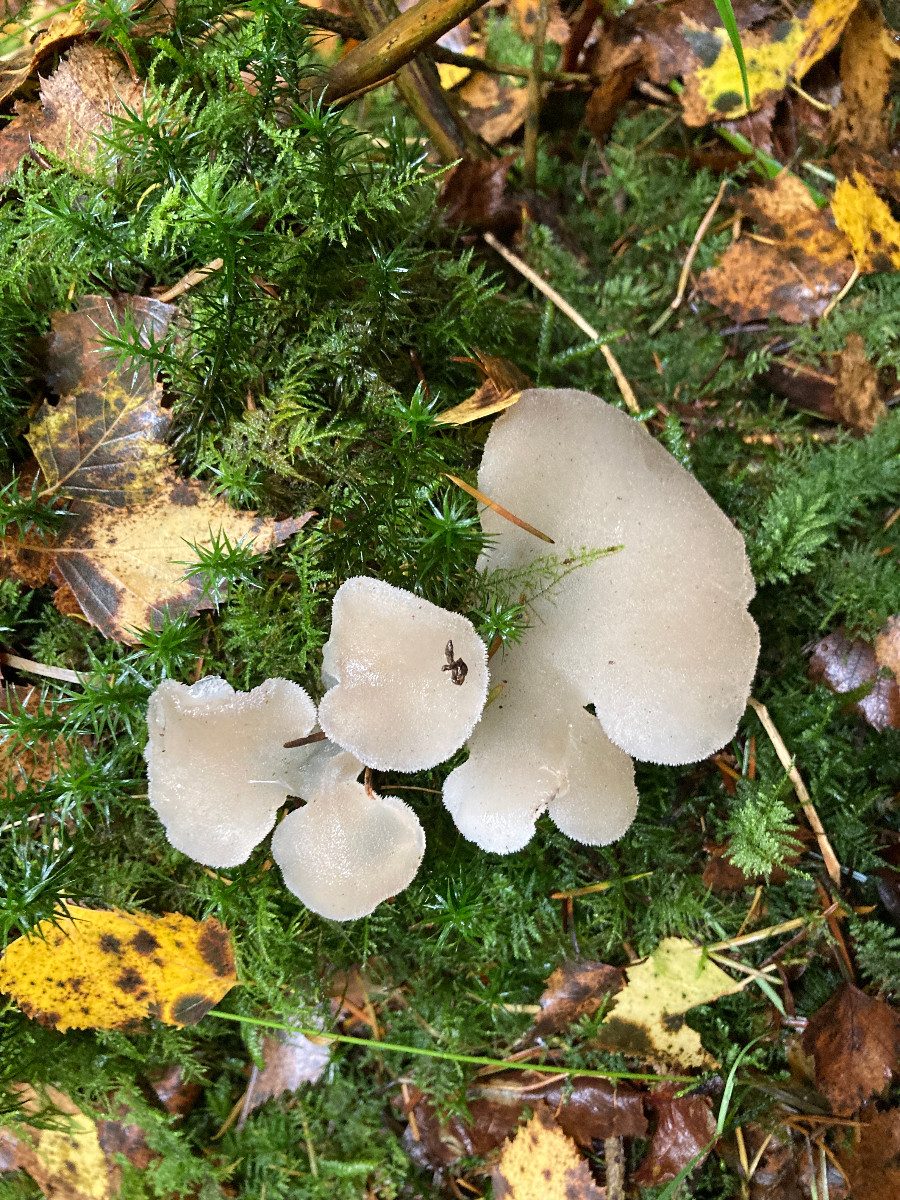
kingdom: Fungi
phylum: Basidiomycota
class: Agaricomycetes
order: Auriculariales
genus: Pseudohydnum
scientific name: Pseudohydnum gelatinosum
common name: bævretand
